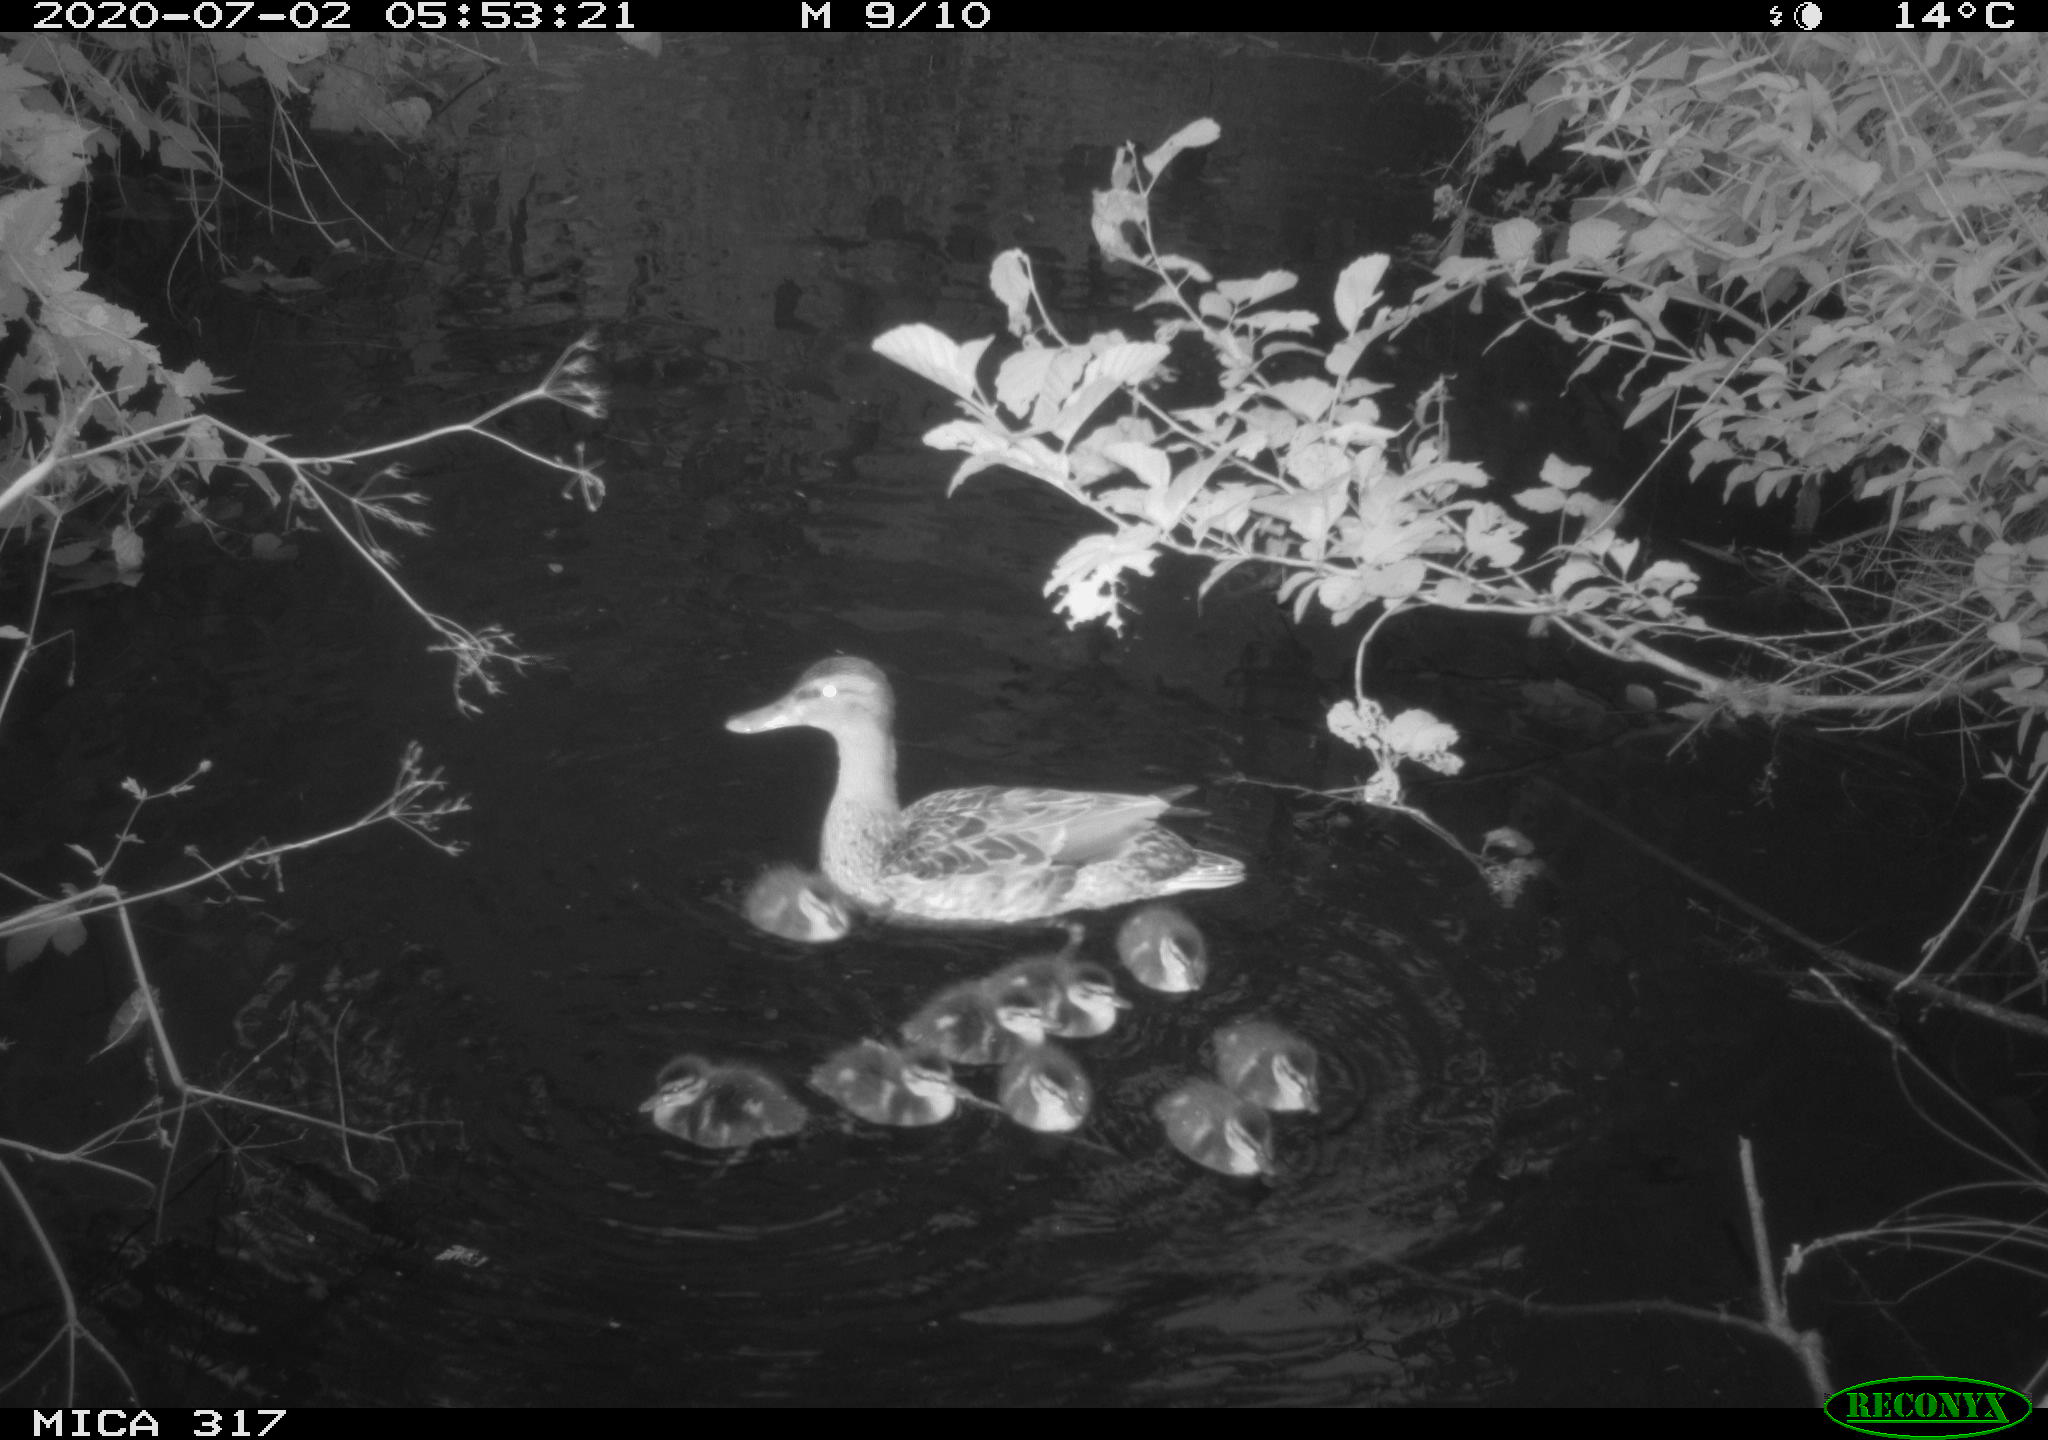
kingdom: Animalia
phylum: Chordata
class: Aves
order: Anseriformes
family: Anatidae
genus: Anas
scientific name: Anas platyrhynchos
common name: Mallard
